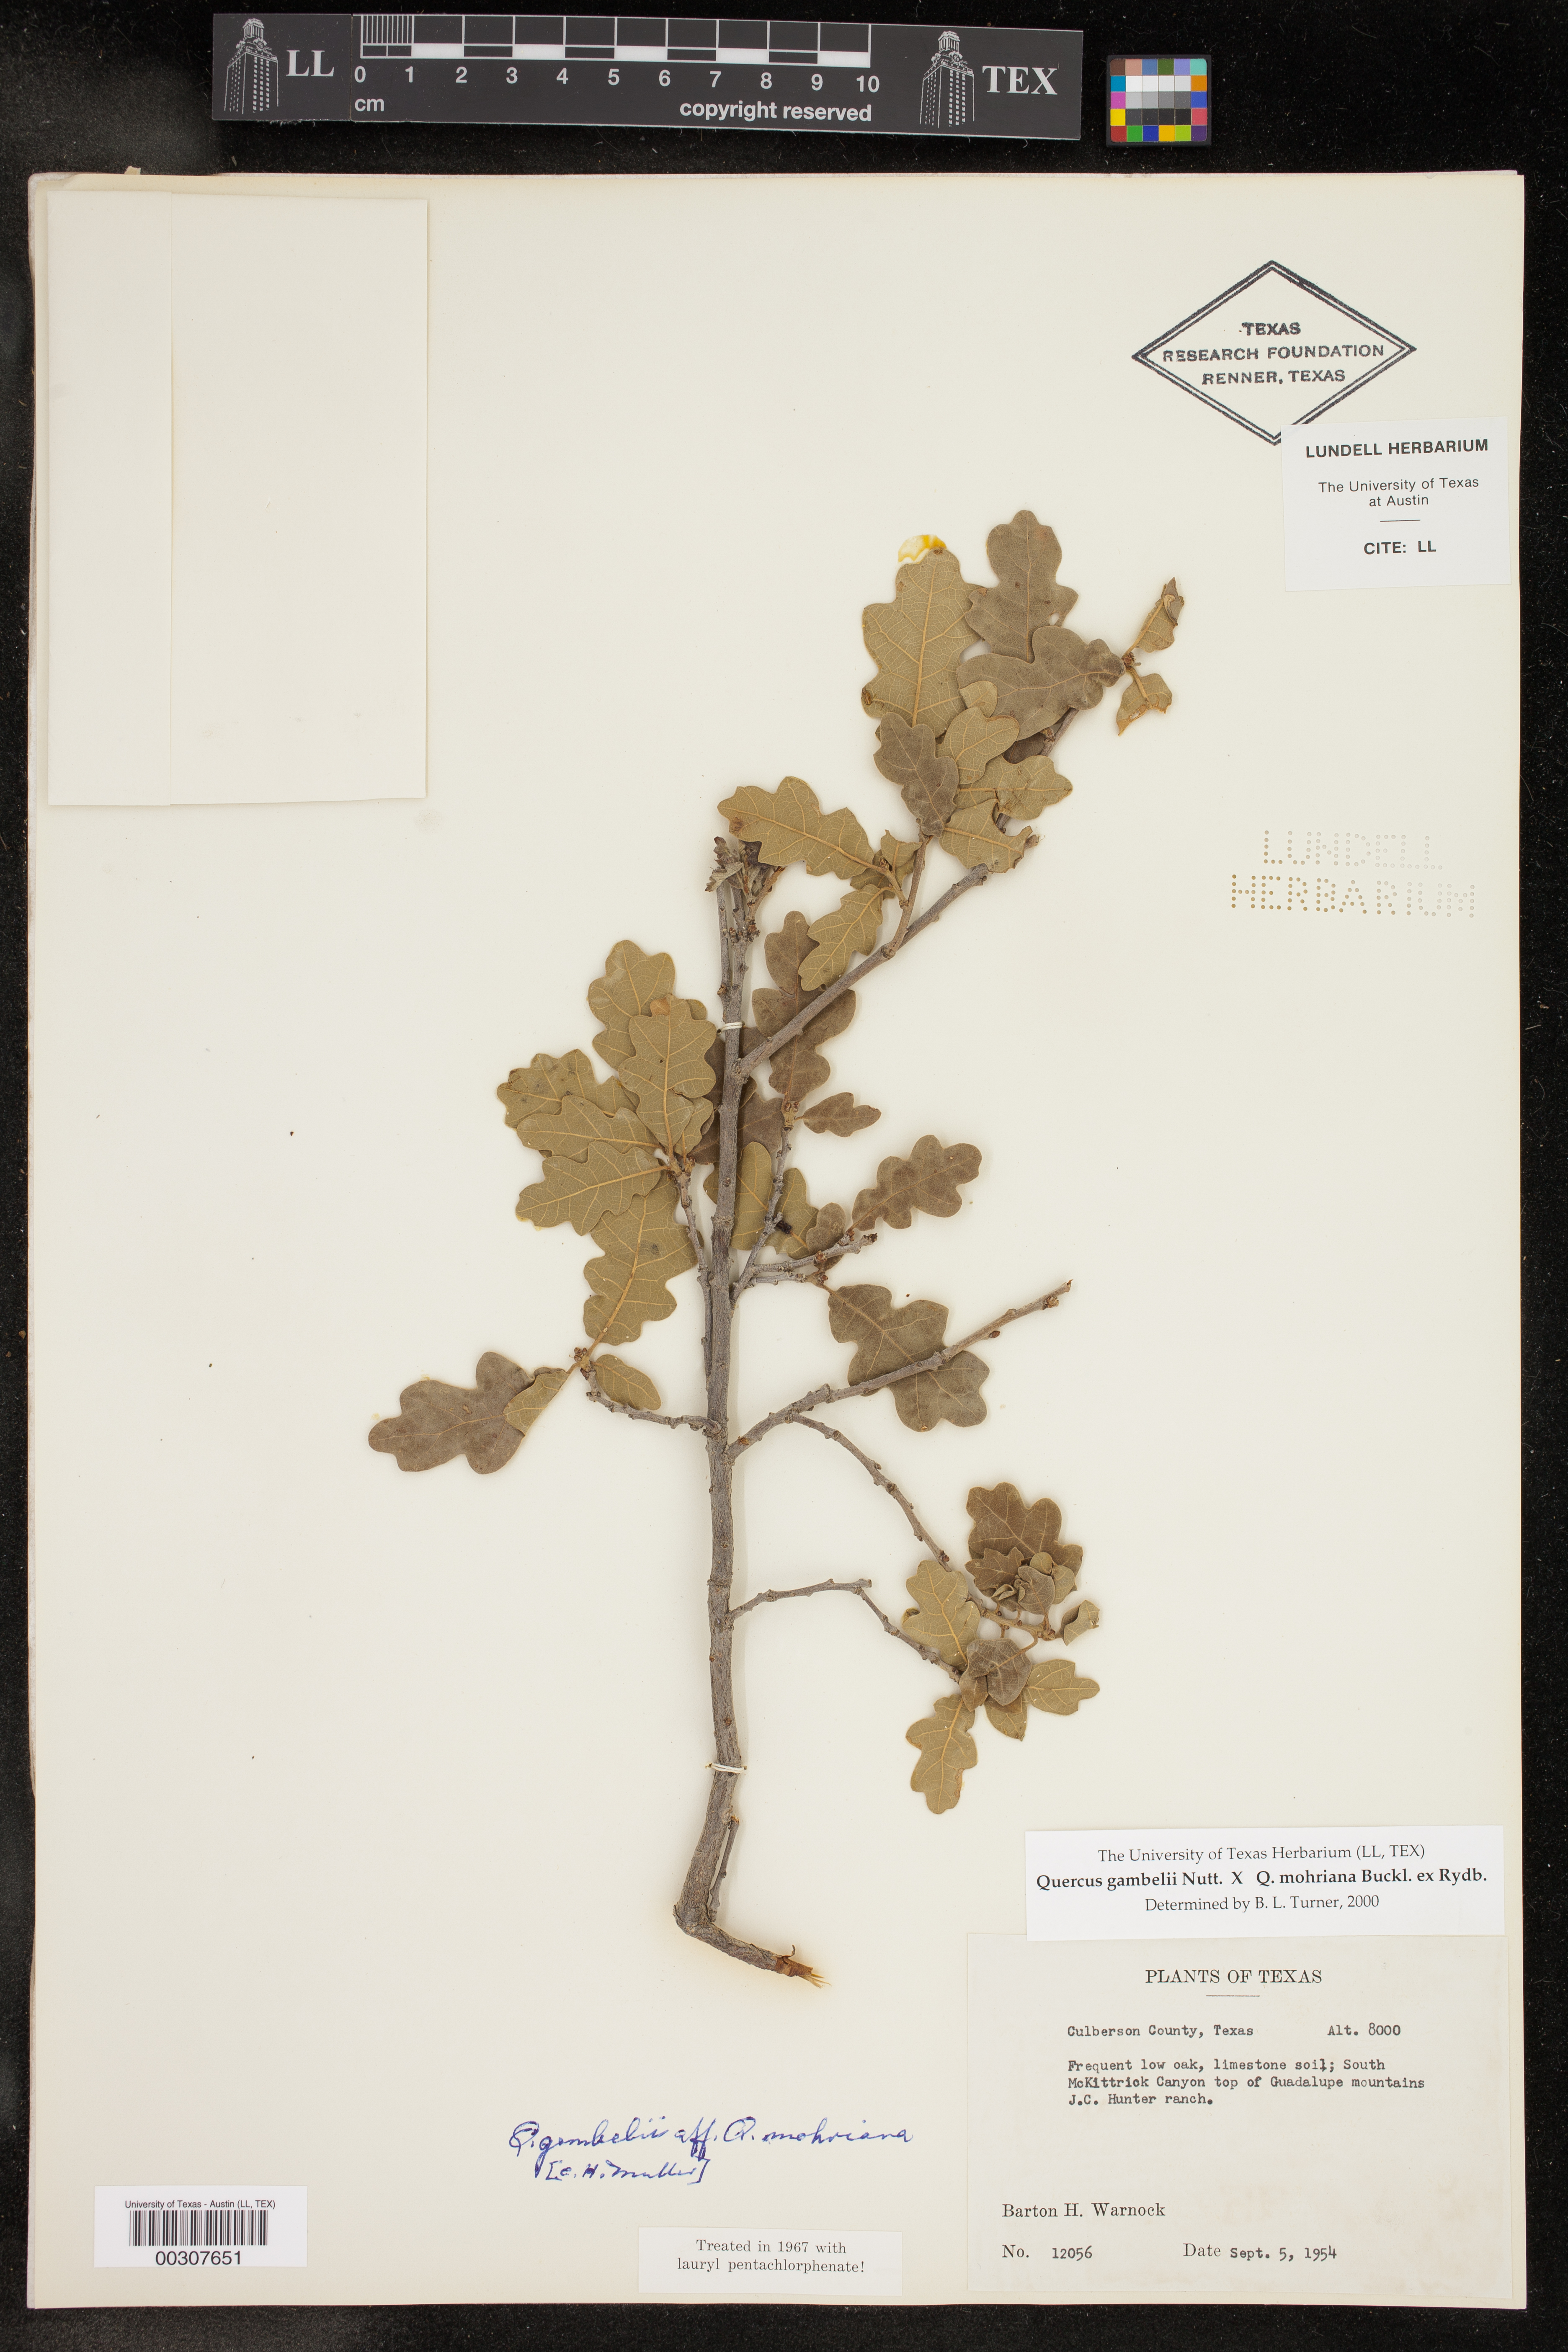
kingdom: Plantae
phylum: Tracheophyta
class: Magnoliopsida
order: Fagales
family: Fagaceae
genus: Quercus
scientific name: Quercus
